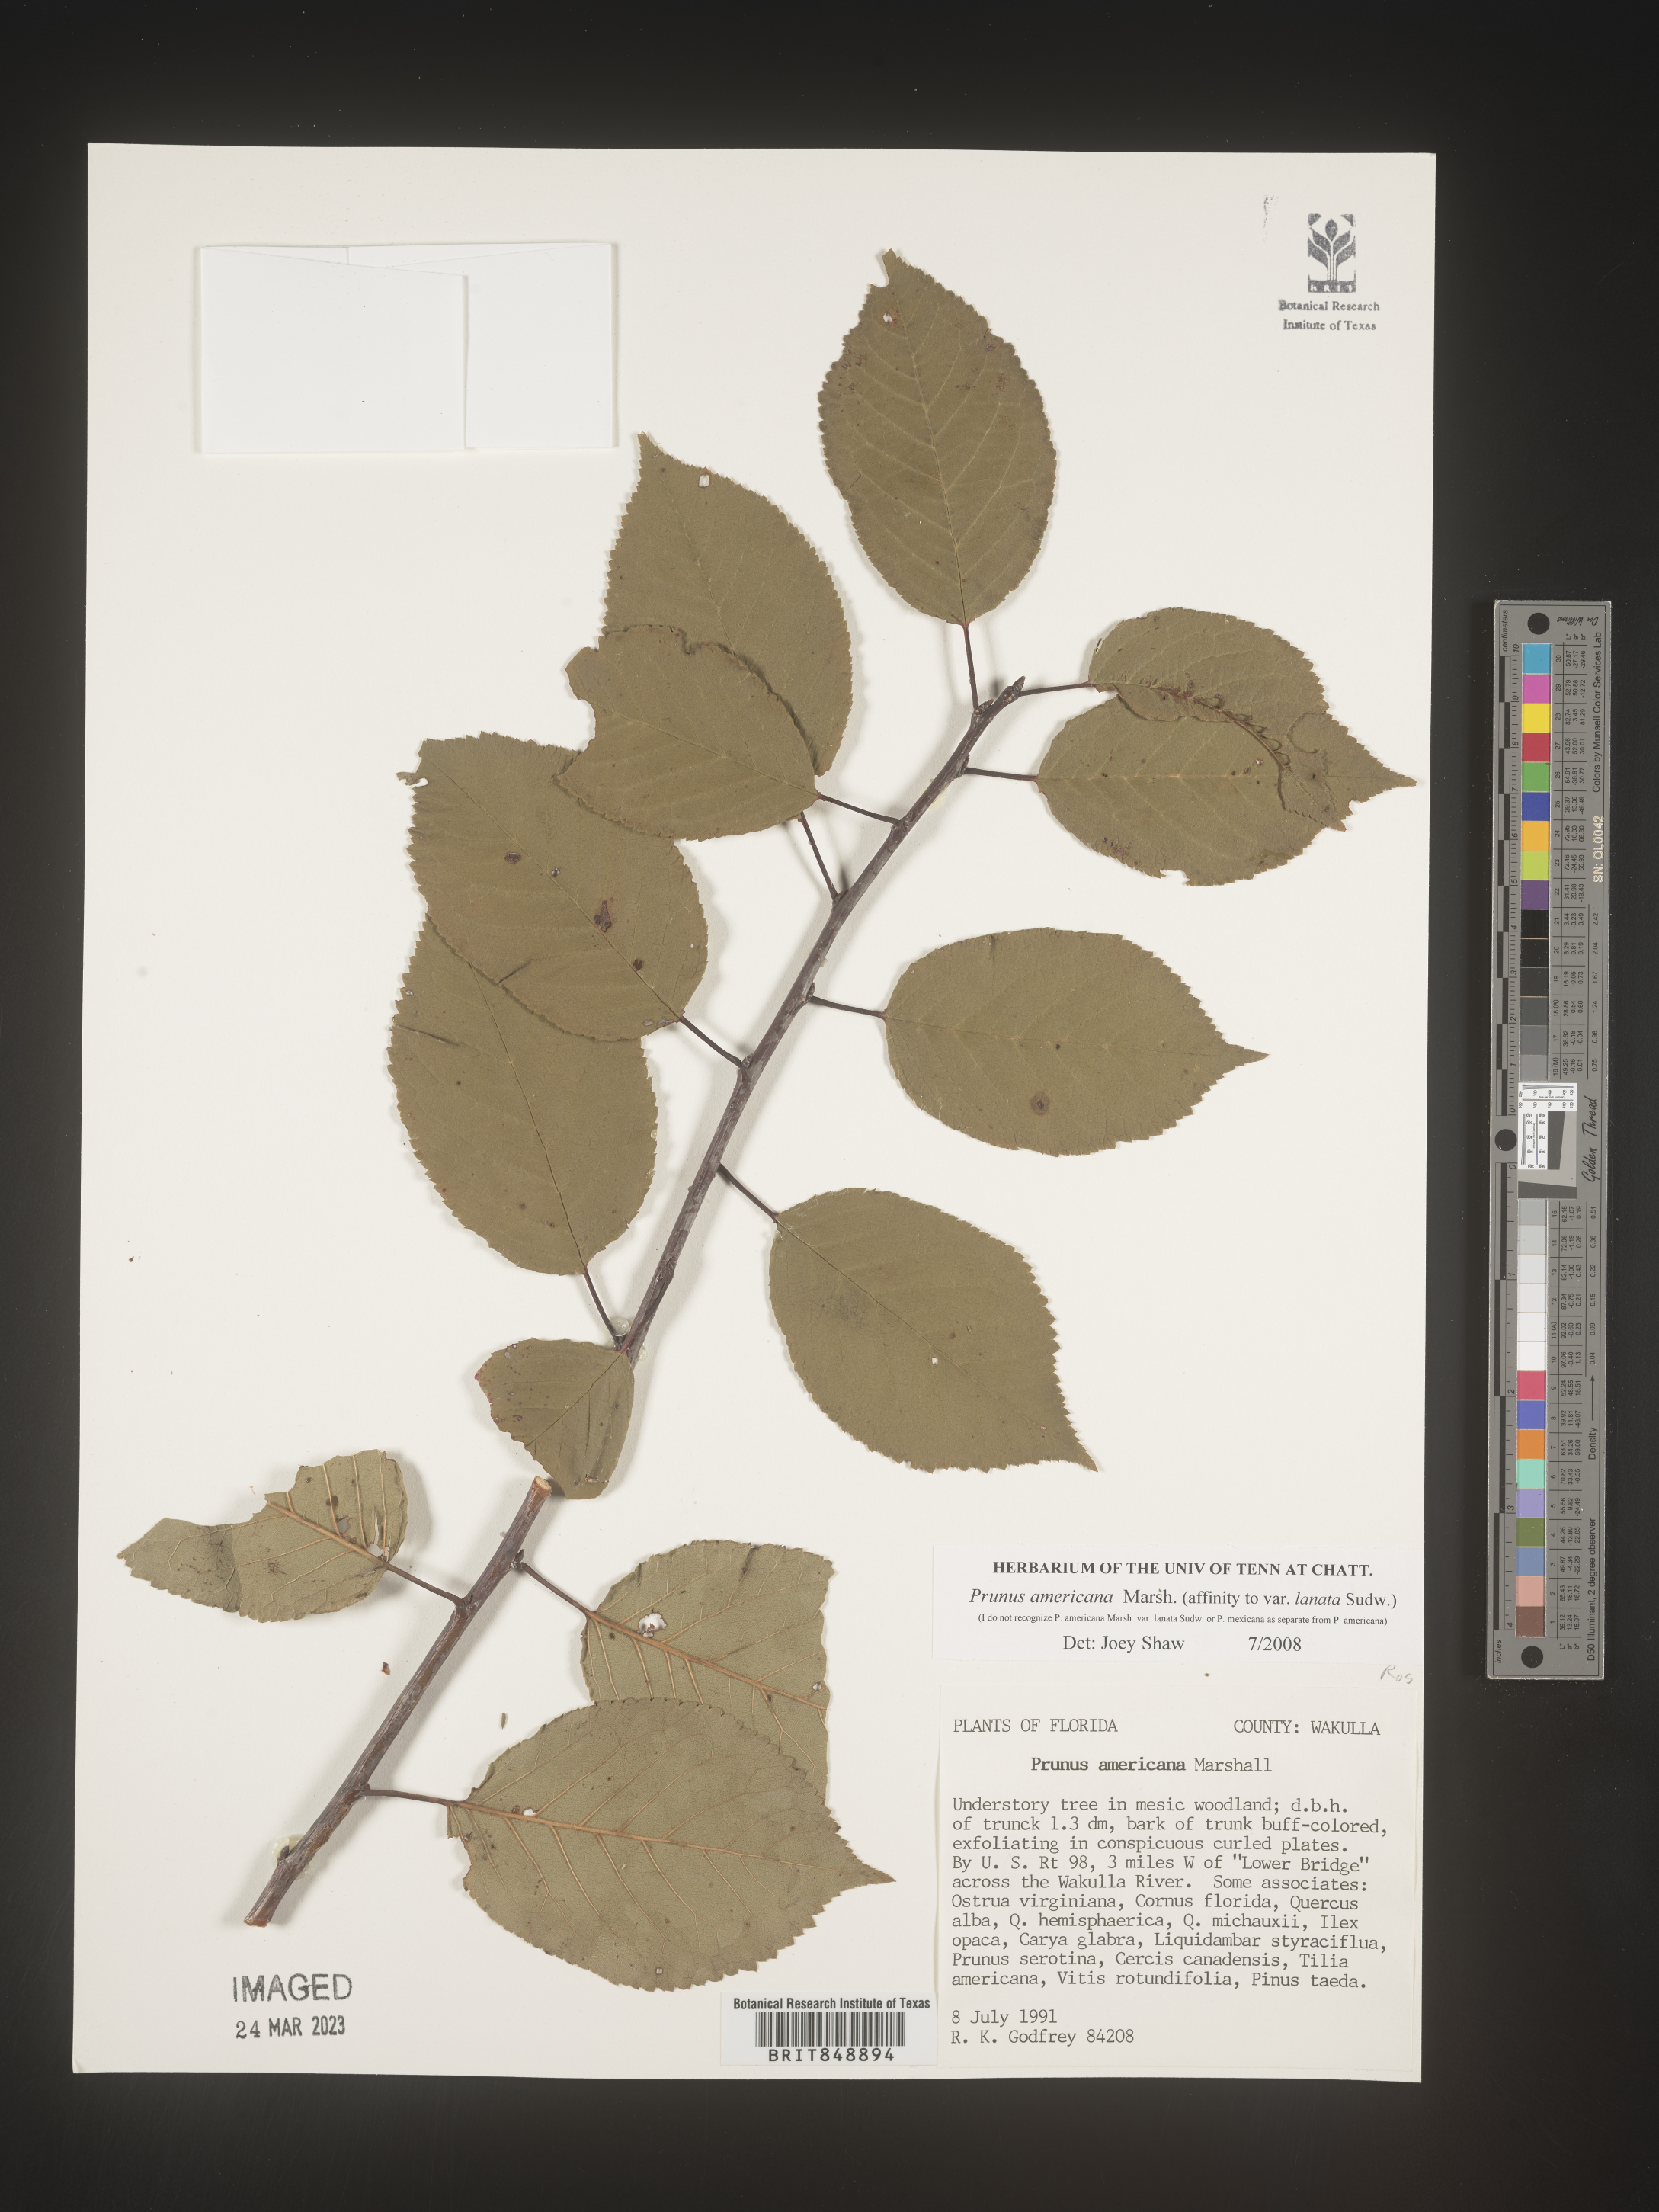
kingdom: Plantae
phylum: Tracheophyta
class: Magnoliopsida
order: Rosales
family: Rosaceae
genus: Prunus
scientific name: Prunus americana
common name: American plum
